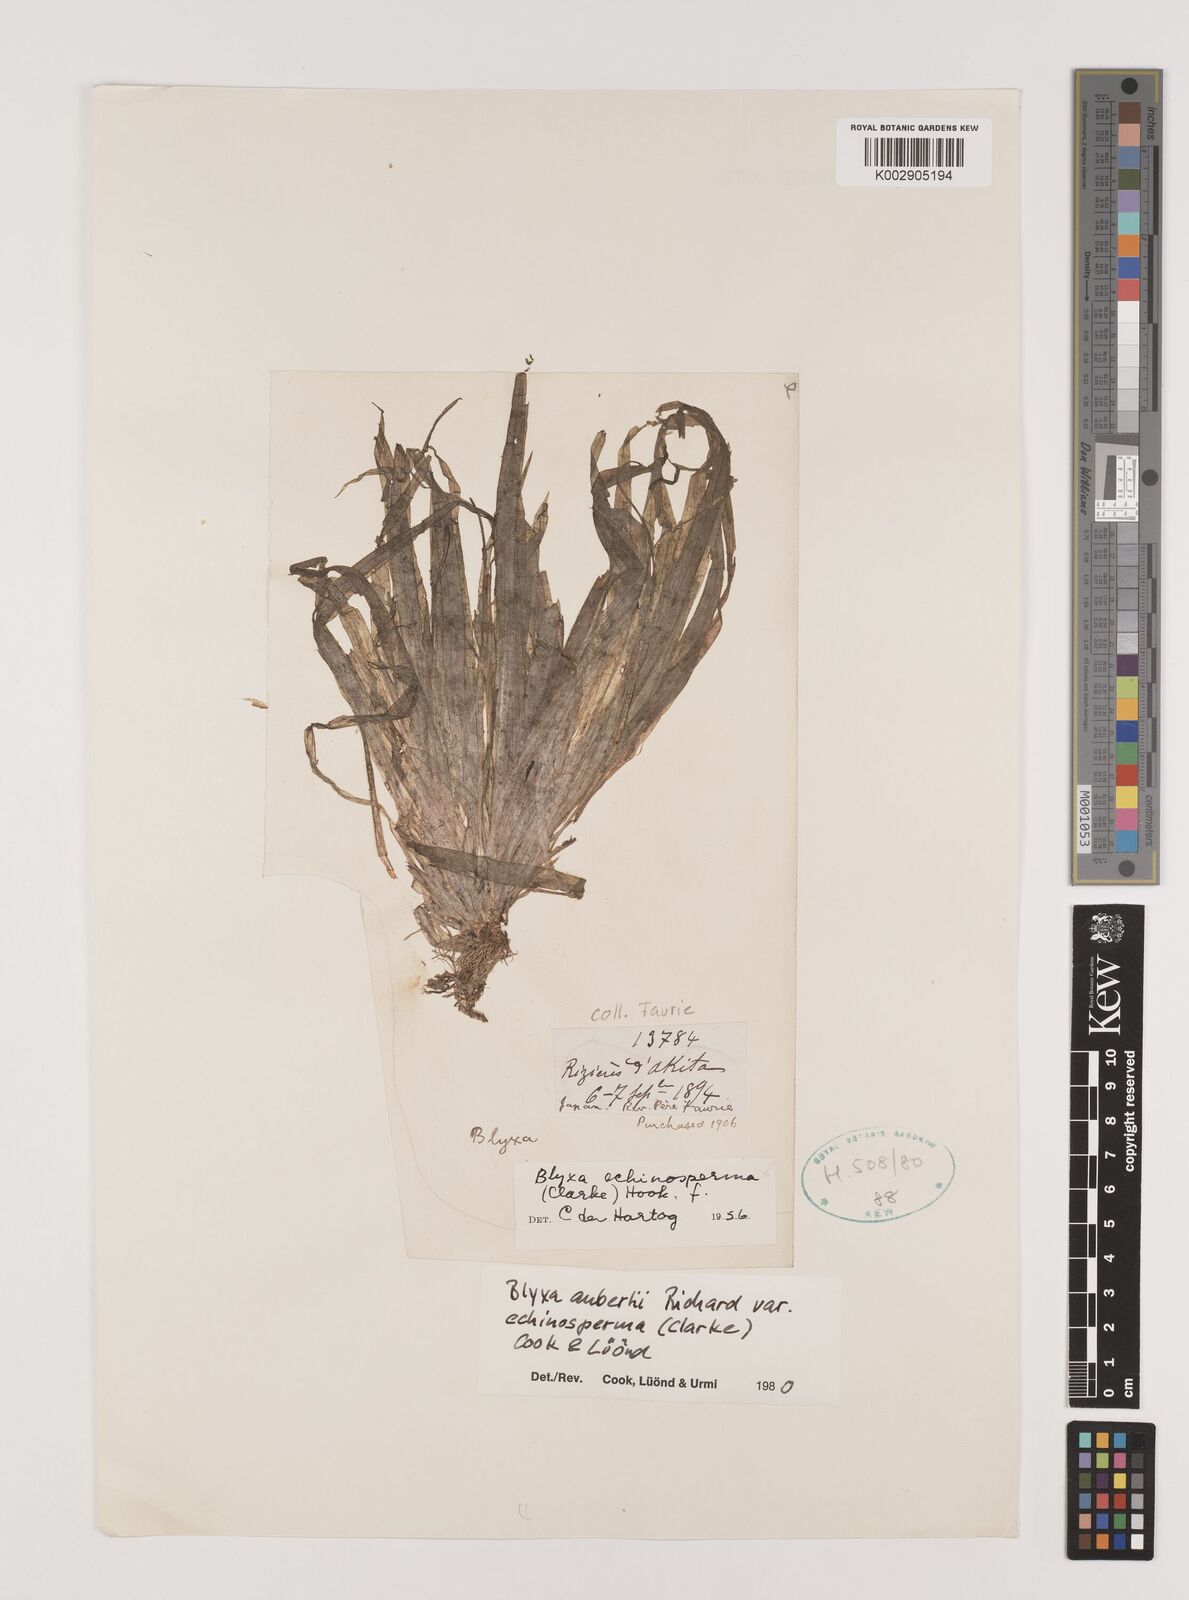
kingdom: Plantae
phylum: Tracheophyta
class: Liliopsida
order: Alismatales
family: Hydrocharitaceae
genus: Blyxa
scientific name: Blyxa echinosperma
